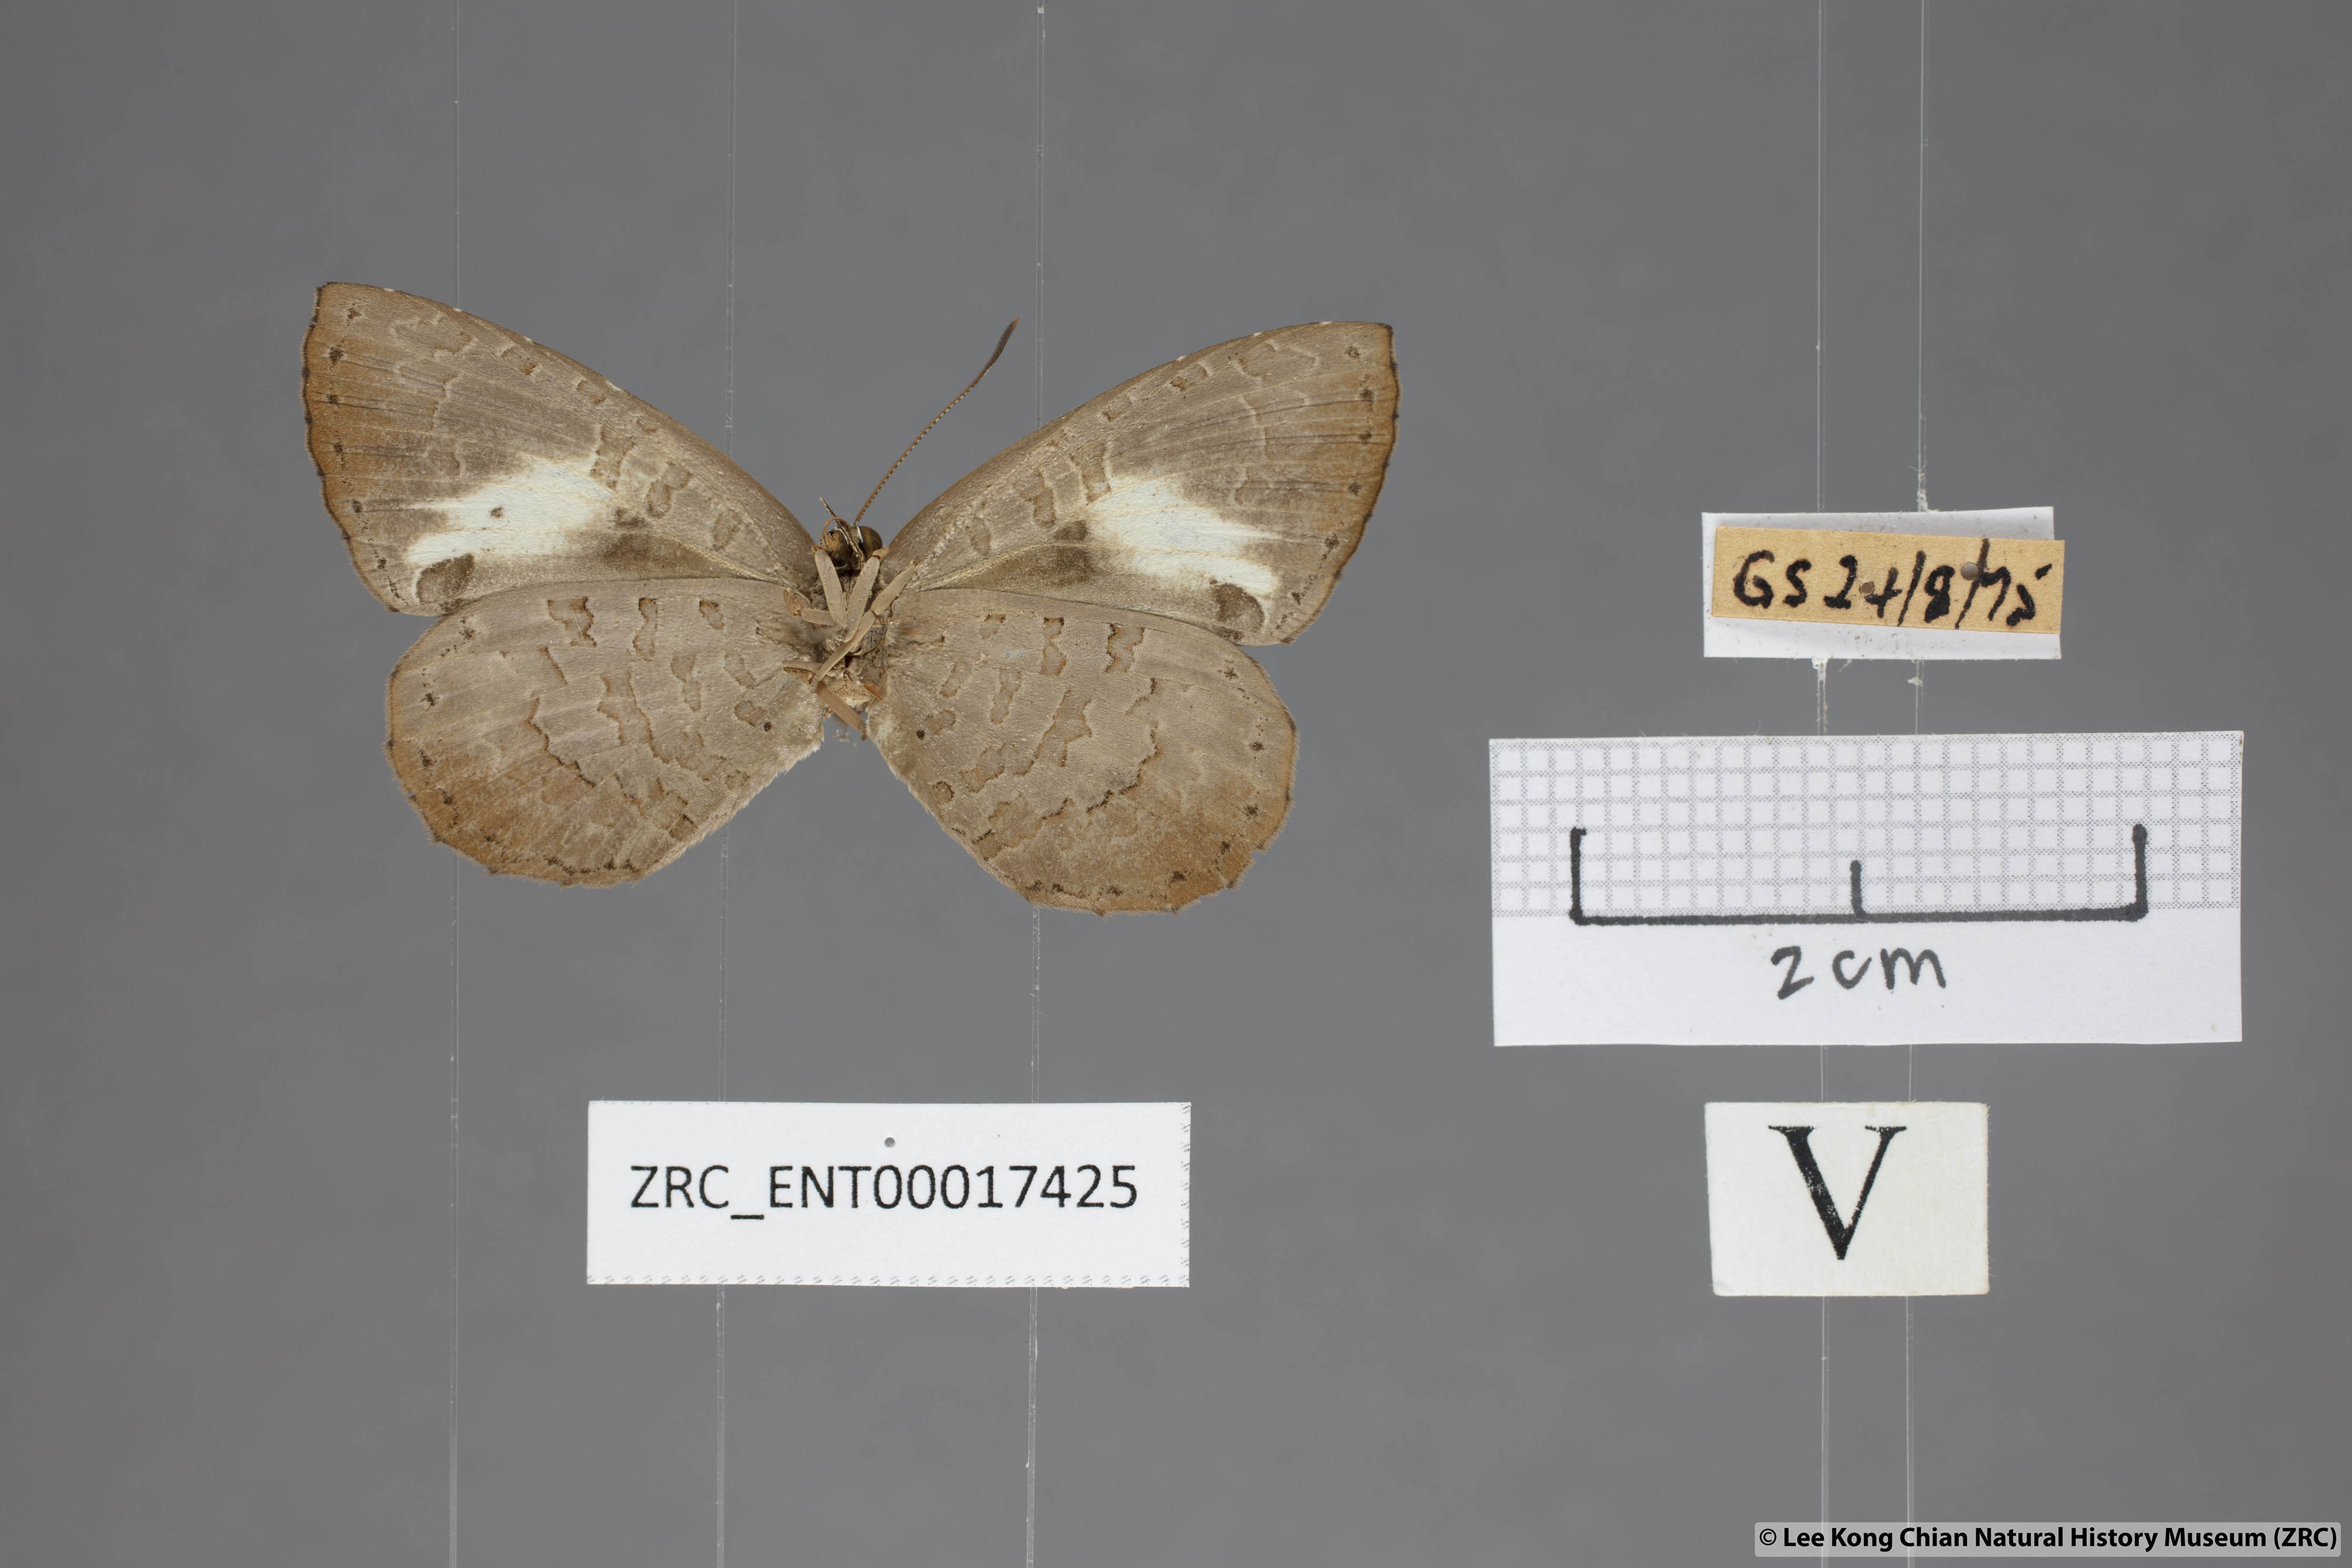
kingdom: Animalia
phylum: Arthropoda
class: Insecta
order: Lepidoptera
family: Lycaenidae
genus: Miletus
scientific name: Miletus biggsii
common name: Bigg's brownie
